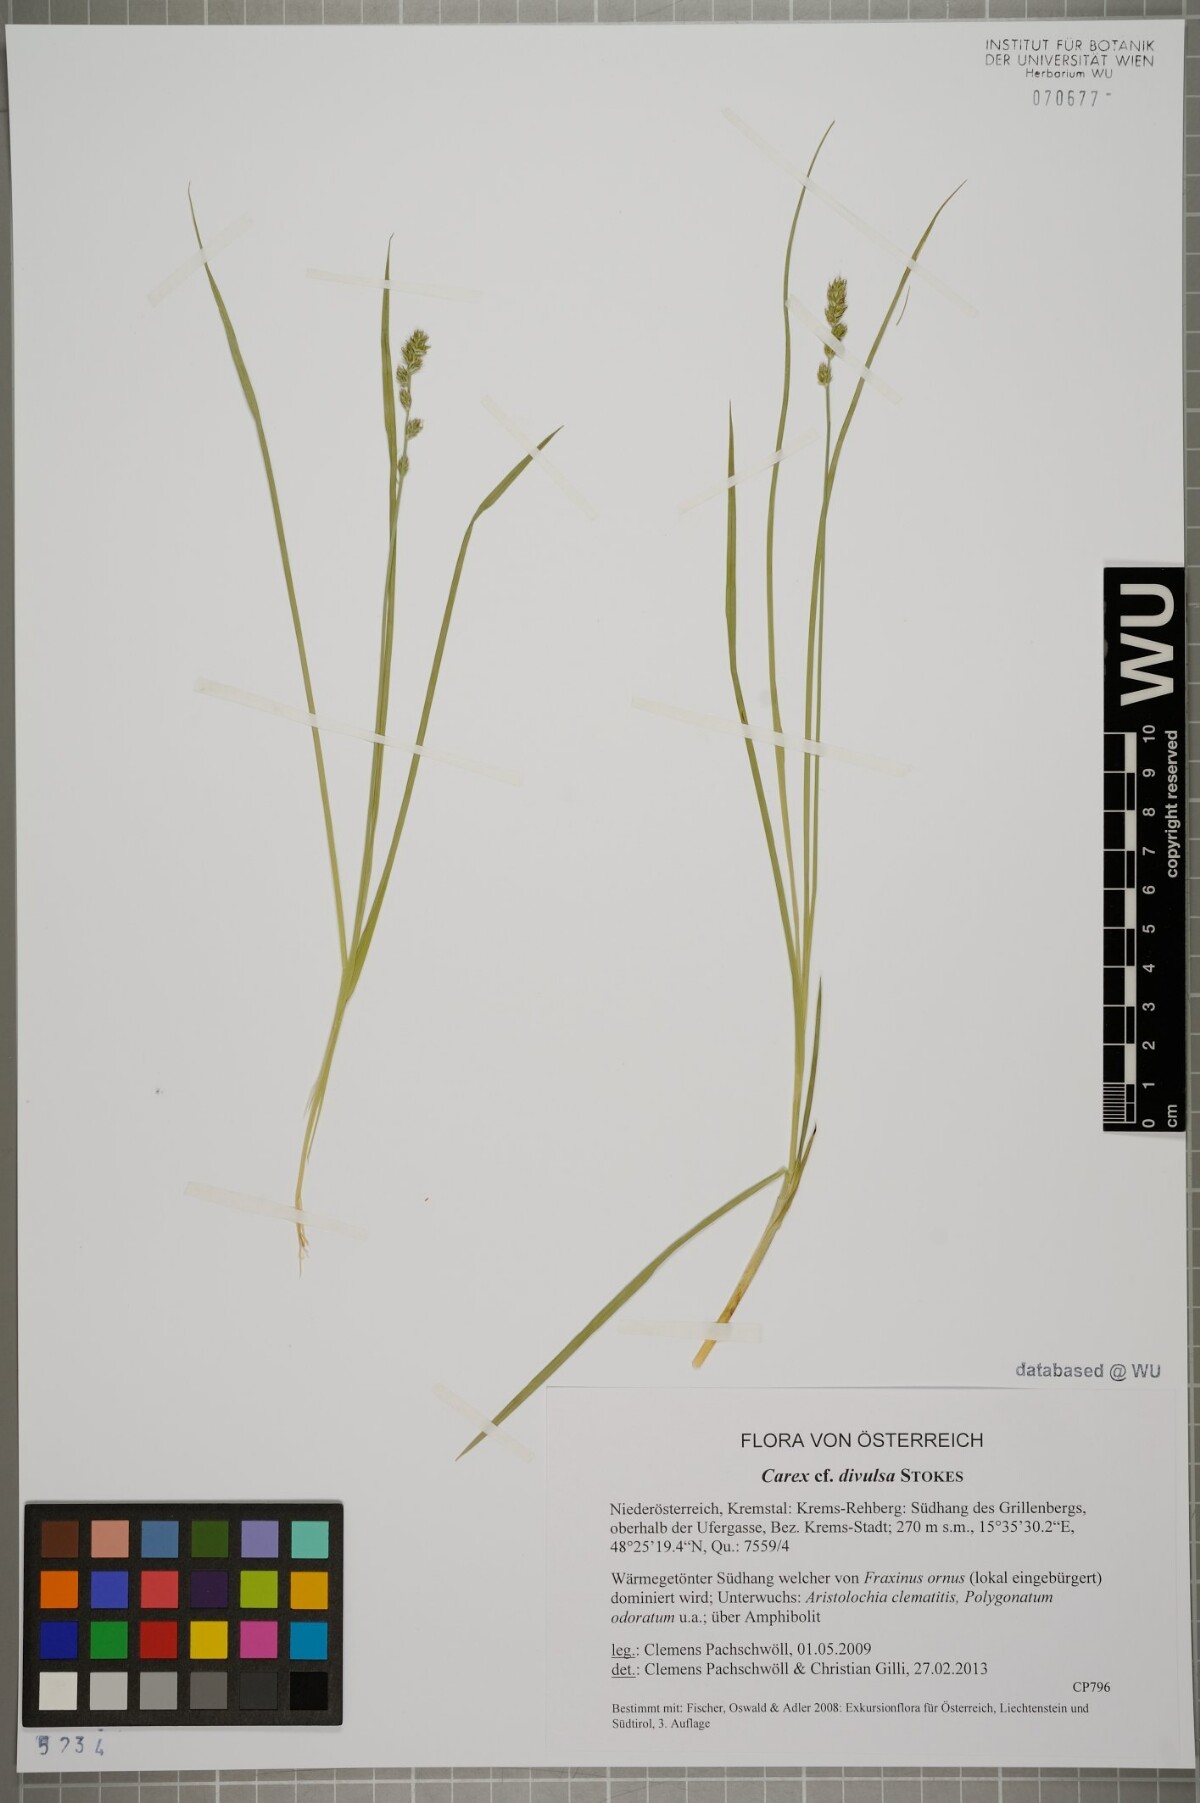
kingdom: Plantae
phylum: Tracheophyta
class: Liliopsida
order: Poales
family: Cyperaceae
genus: Carex
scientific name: Carex divulsa
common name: Grassland sedge
